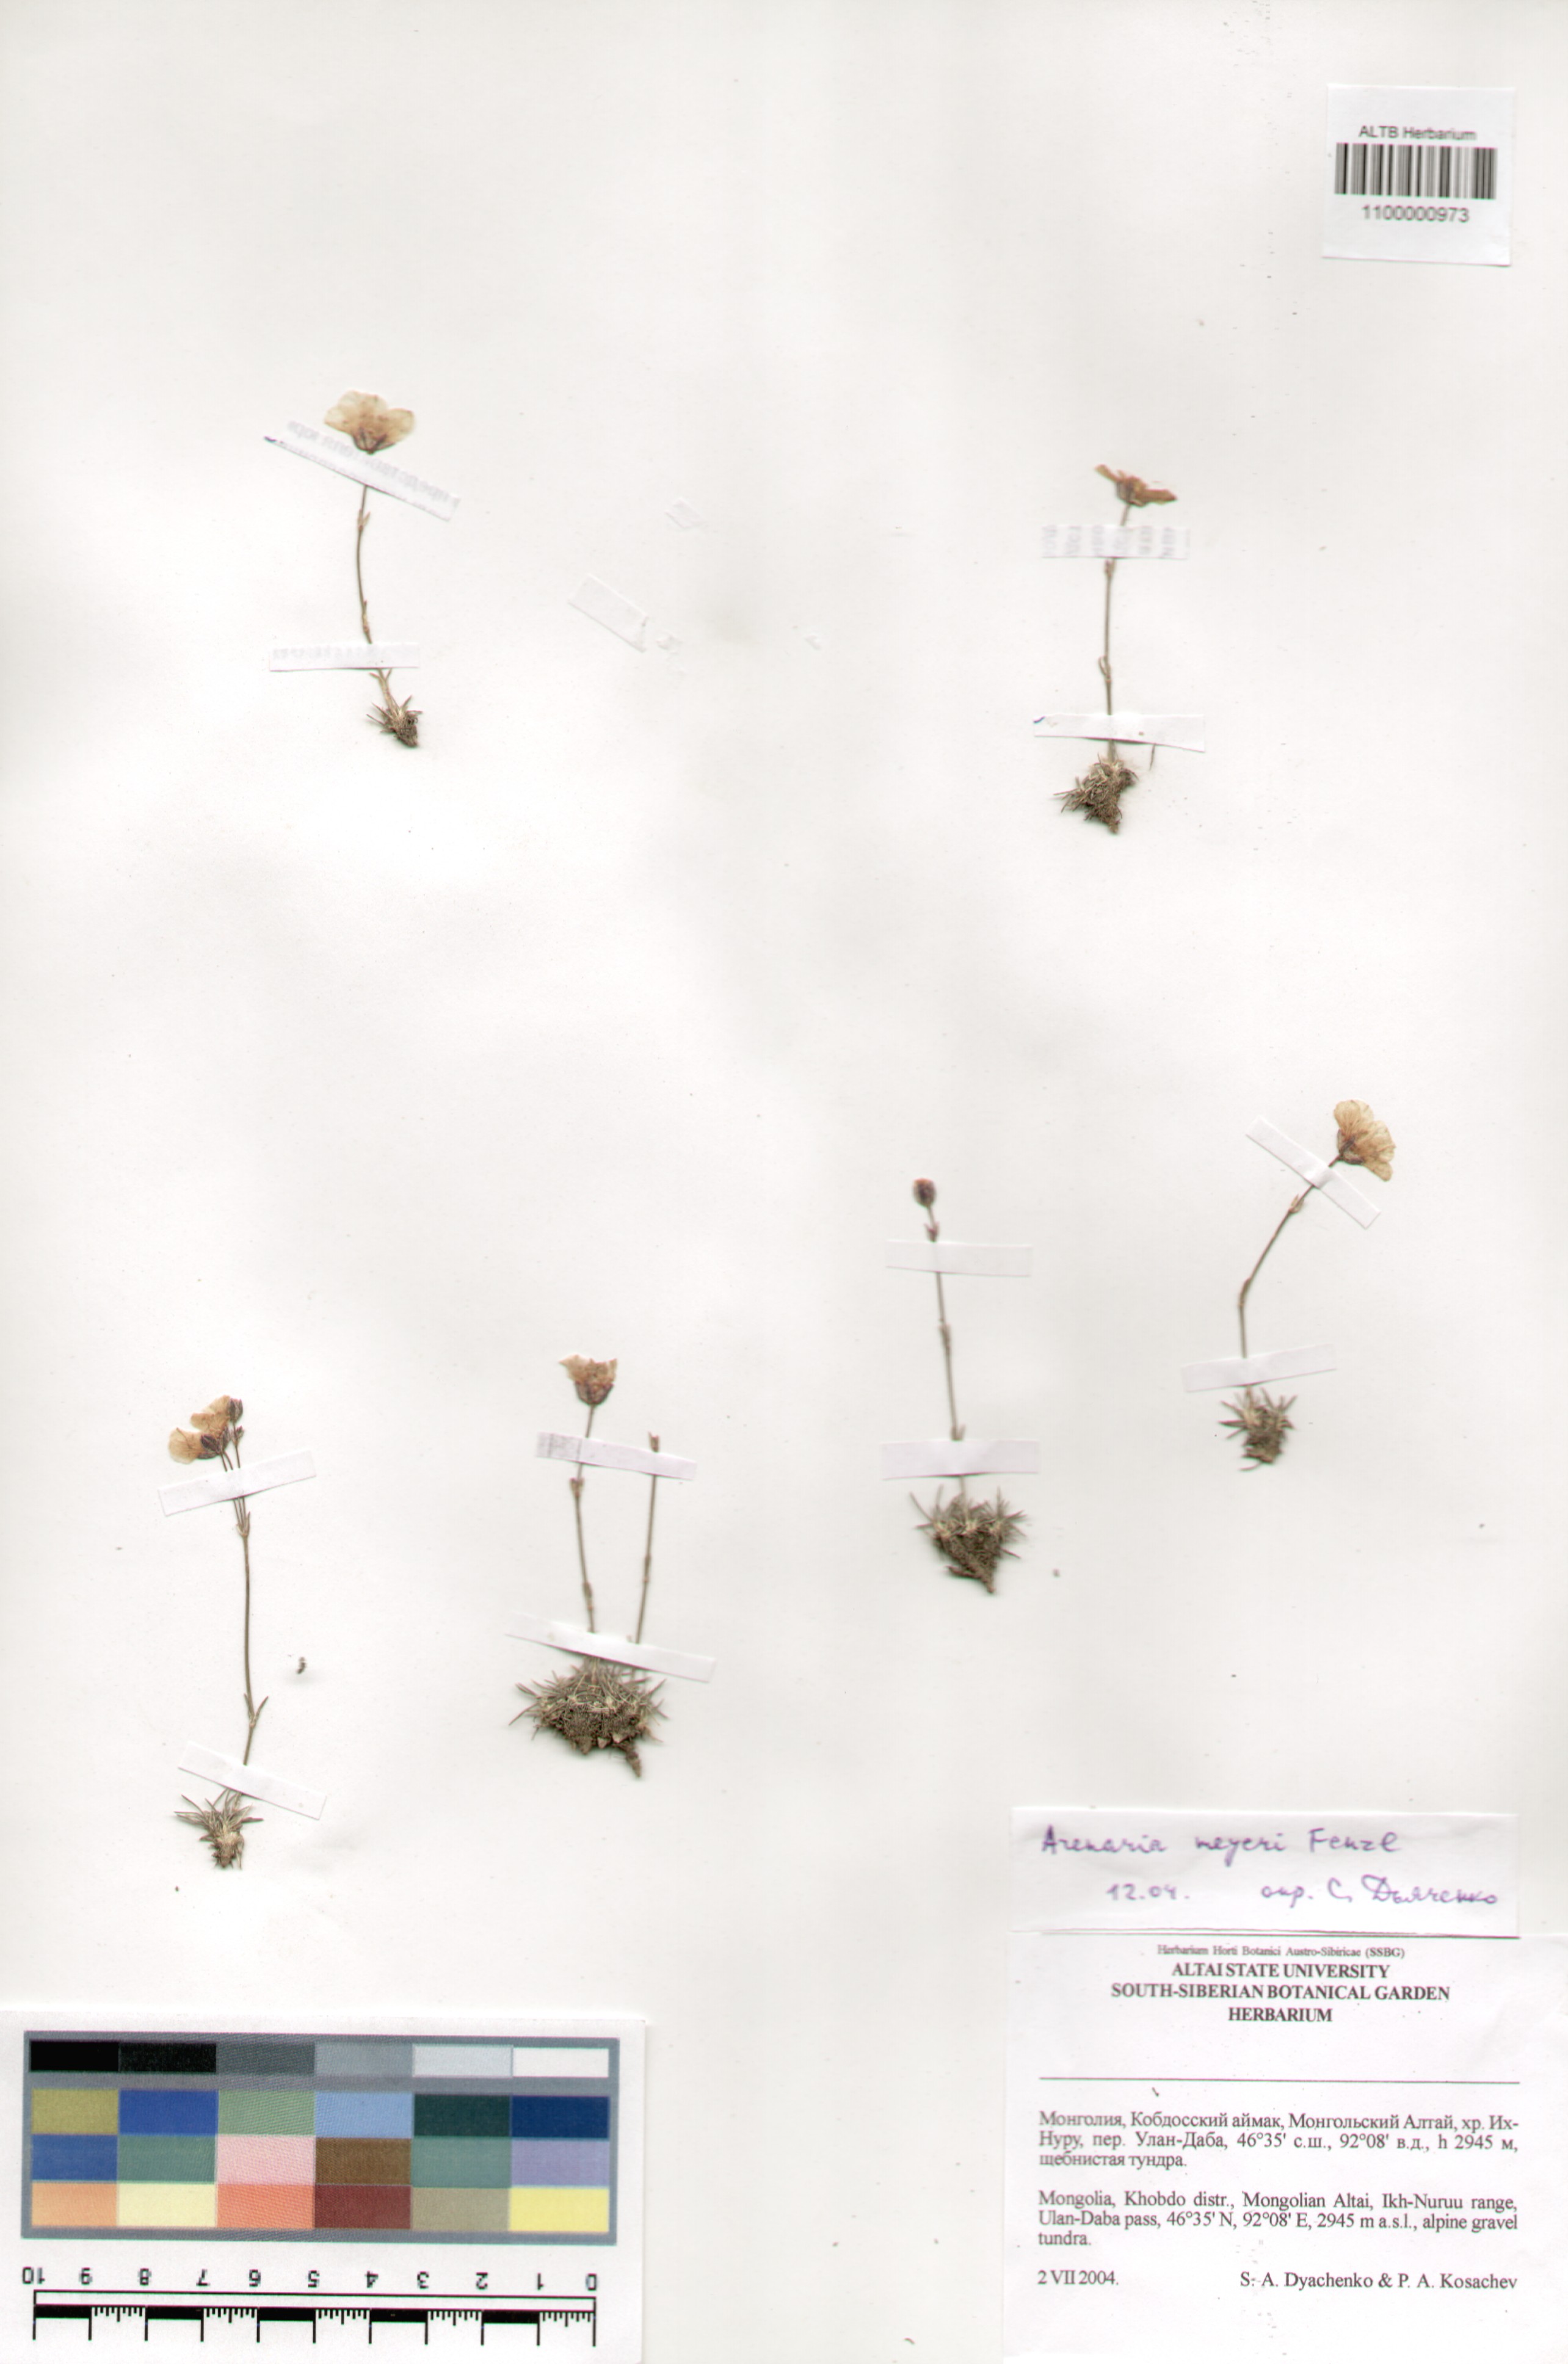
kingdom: Plantae
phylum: Tracheophyta
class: Magnoliopsida
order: Caryophyllales
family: Caryophyllaceae
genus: Eremogone
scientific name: Eremogone meyeri
